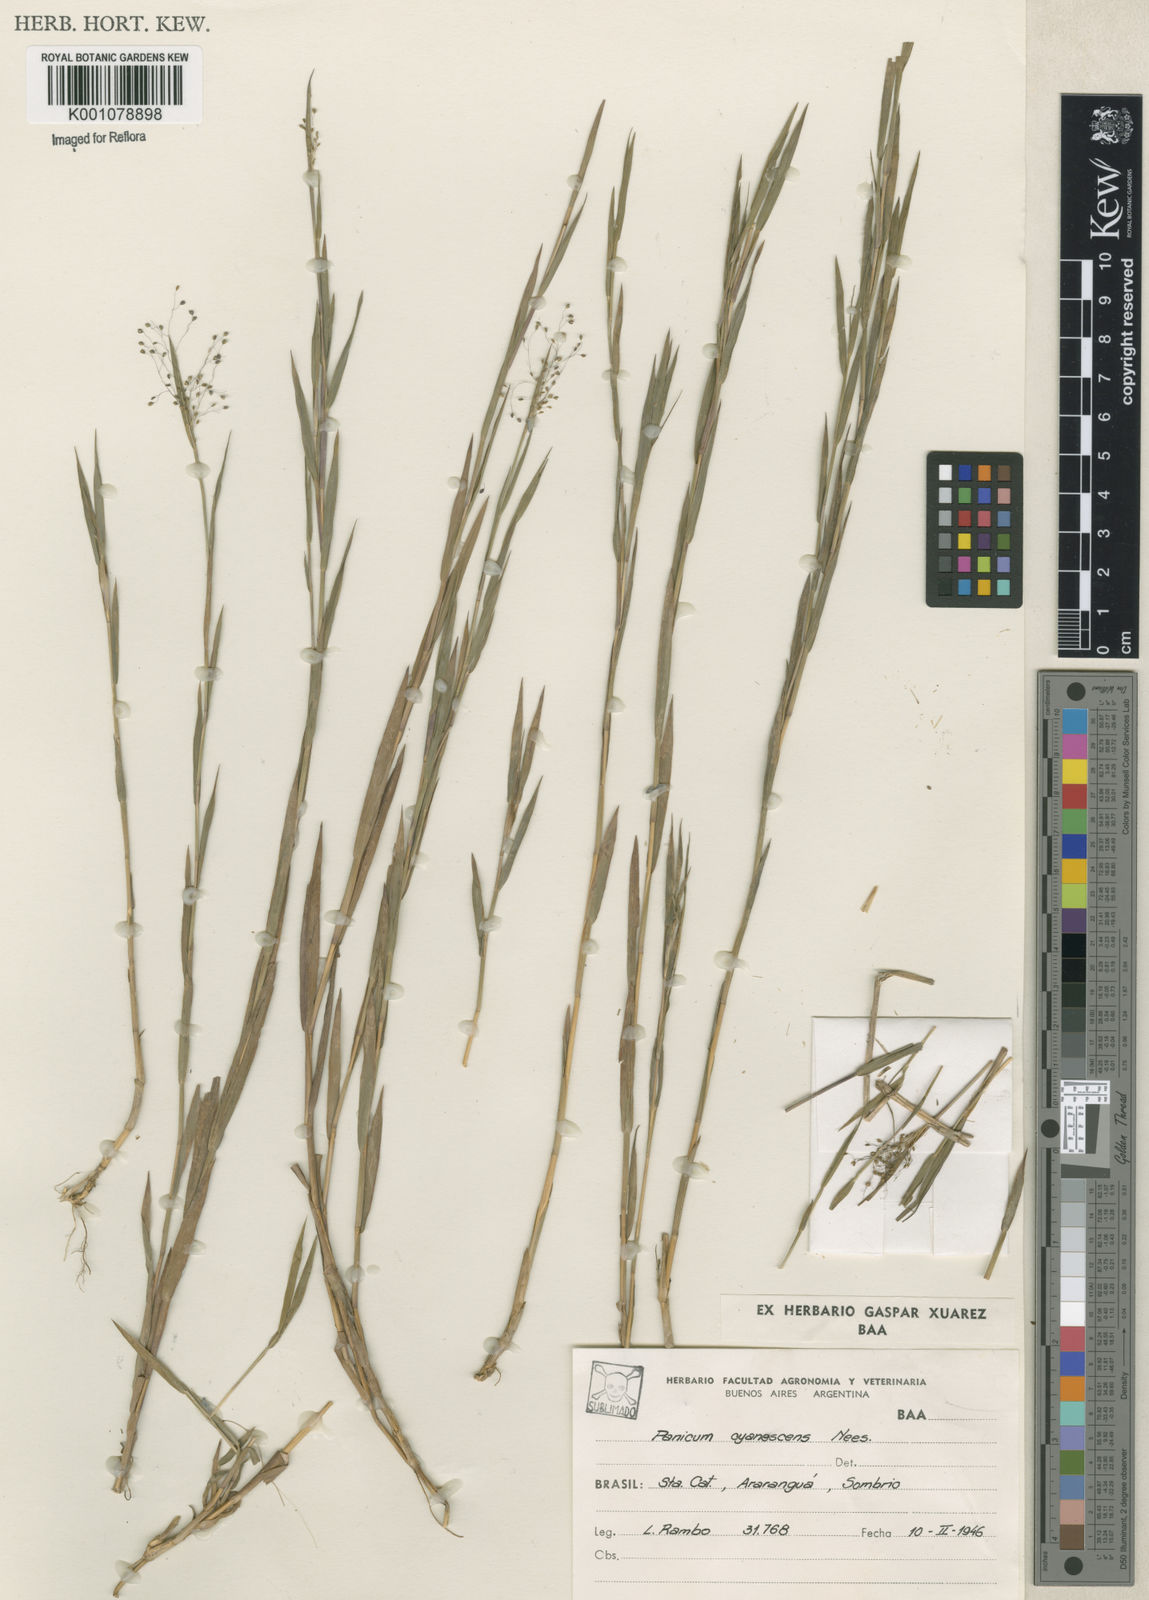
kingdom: Plantae
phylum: Tracheophyta
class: Liliopsida
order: Poales
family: Poaceae
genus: Trichanthecium
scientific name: Trichanthecium cyanescens
